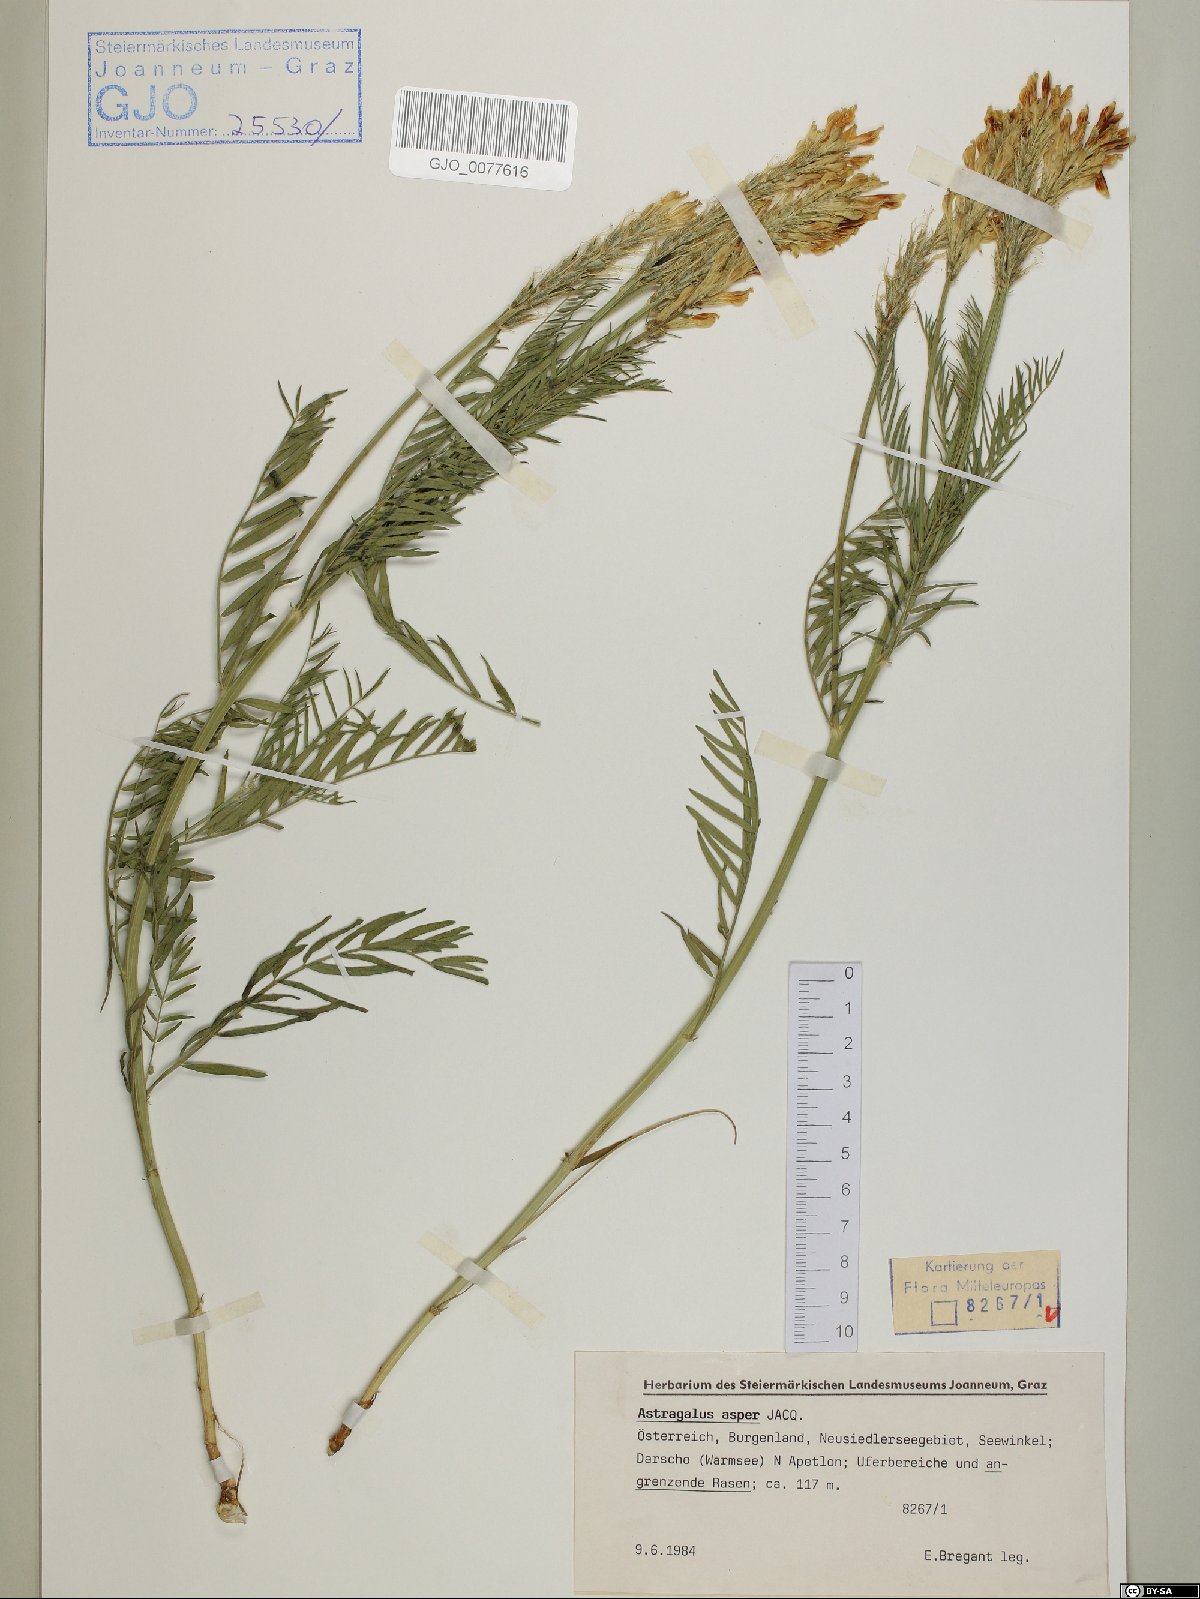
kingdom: Plantae
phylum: Tracheophyta
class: Magnoliopsida
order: Fabales
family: Fabaceae
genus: Astragalus
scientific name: Astragalus asper
